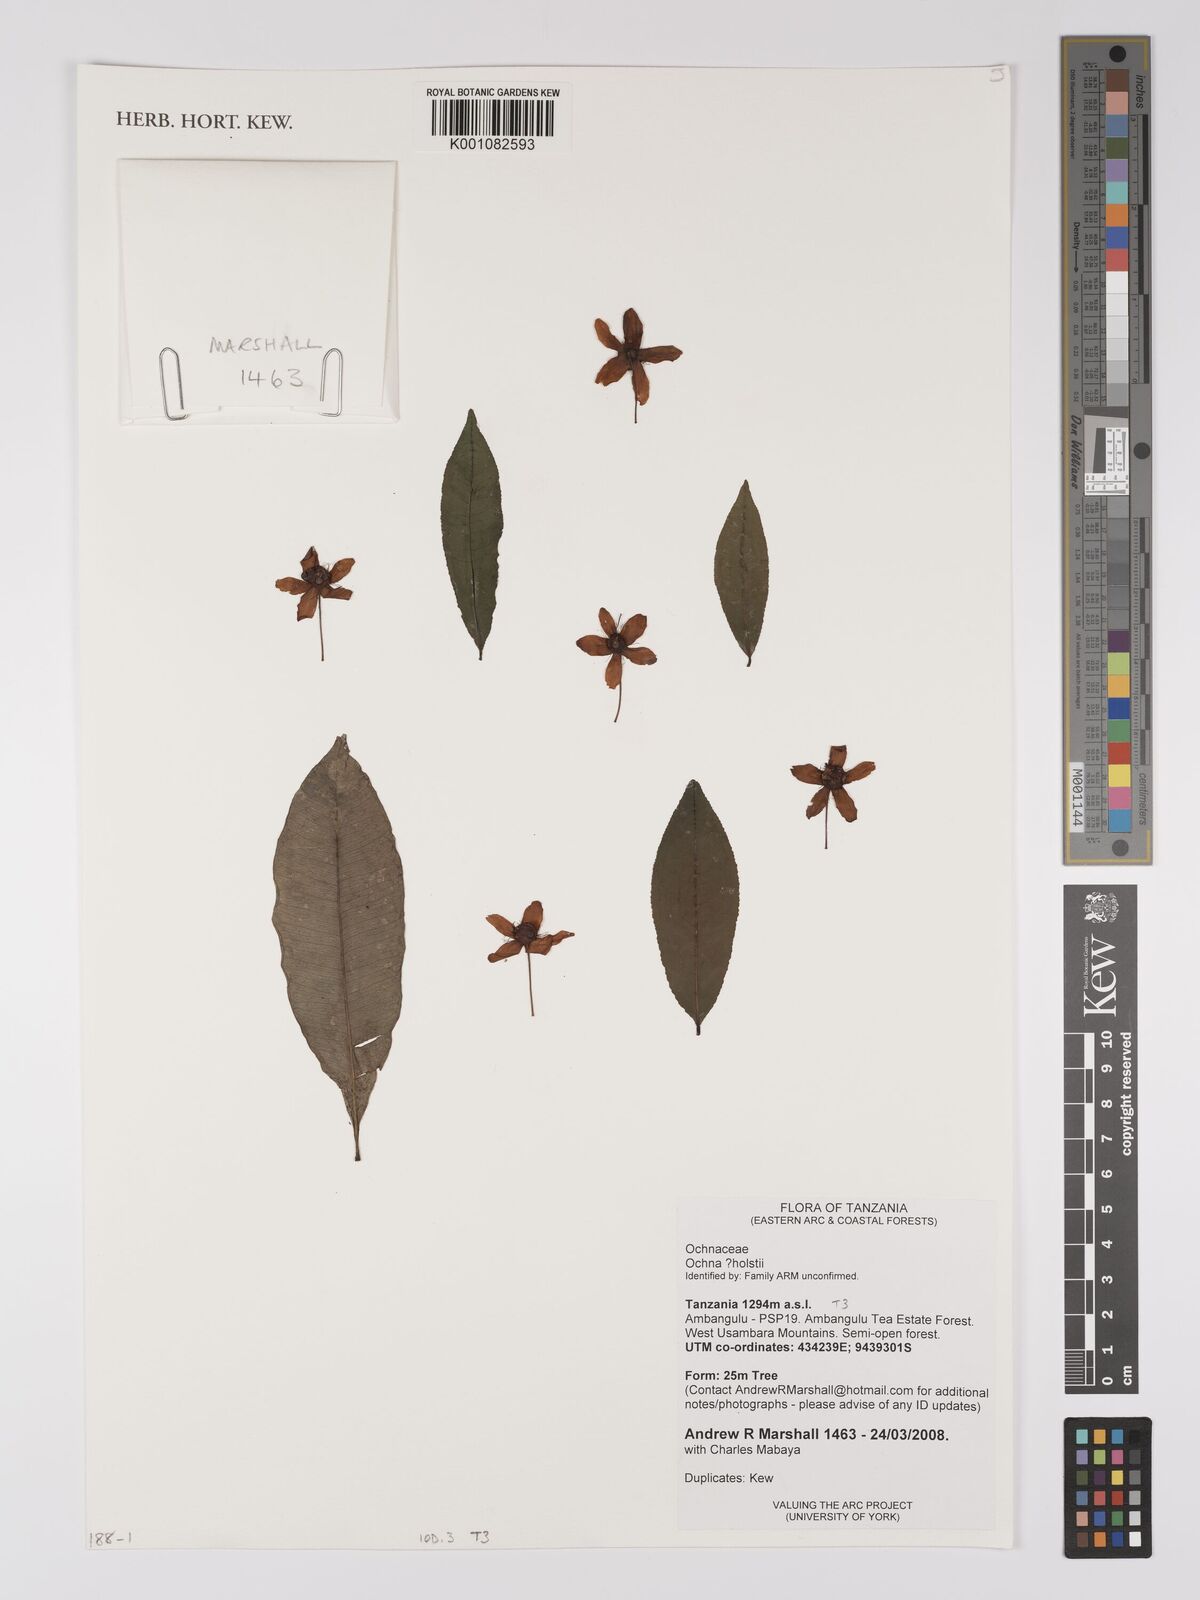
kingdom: Plantae
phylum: Tracheophyta
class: Magnoliopsida
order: Malpighiales
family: Ochnaceae
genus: Ochna
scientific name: Ochna holstii
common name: Red ironwood
